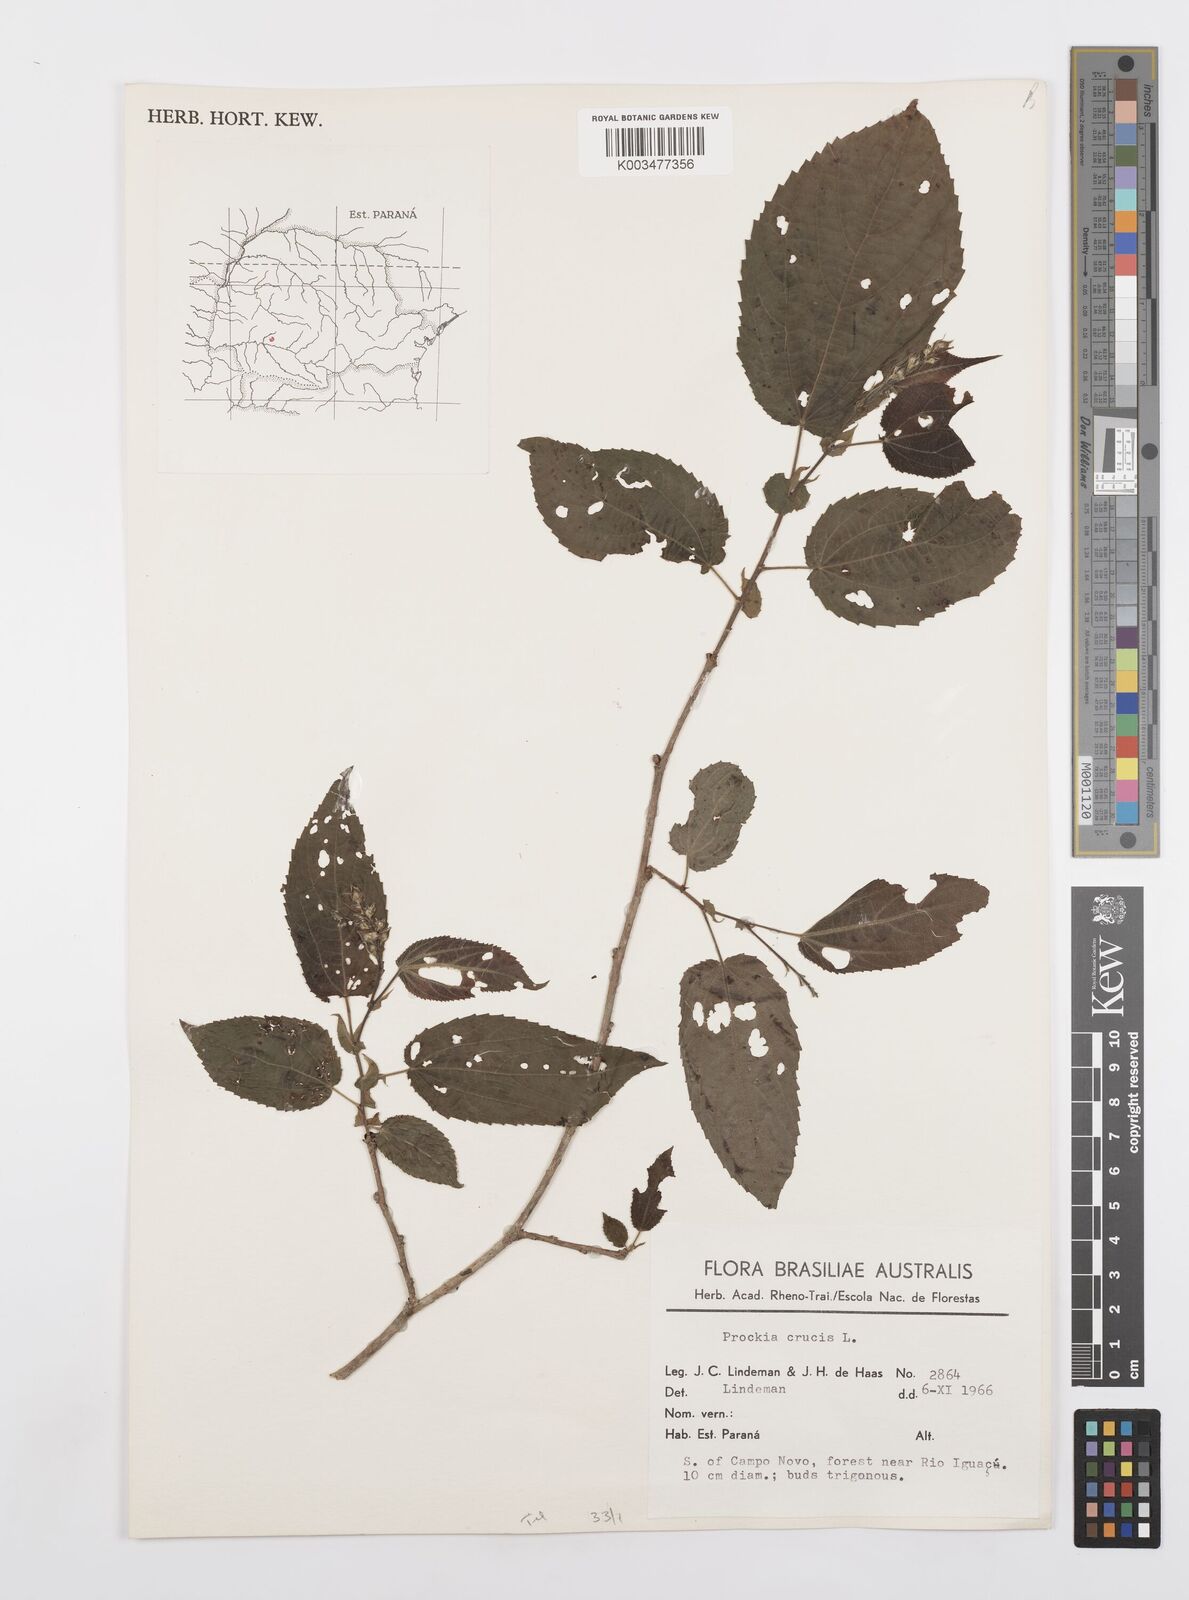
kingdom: Plantae
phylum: Tracheophyta
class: Magnoliopsida
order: Malpighiales
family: Salicaceae
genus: Prockia
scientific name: Prockia crucis
